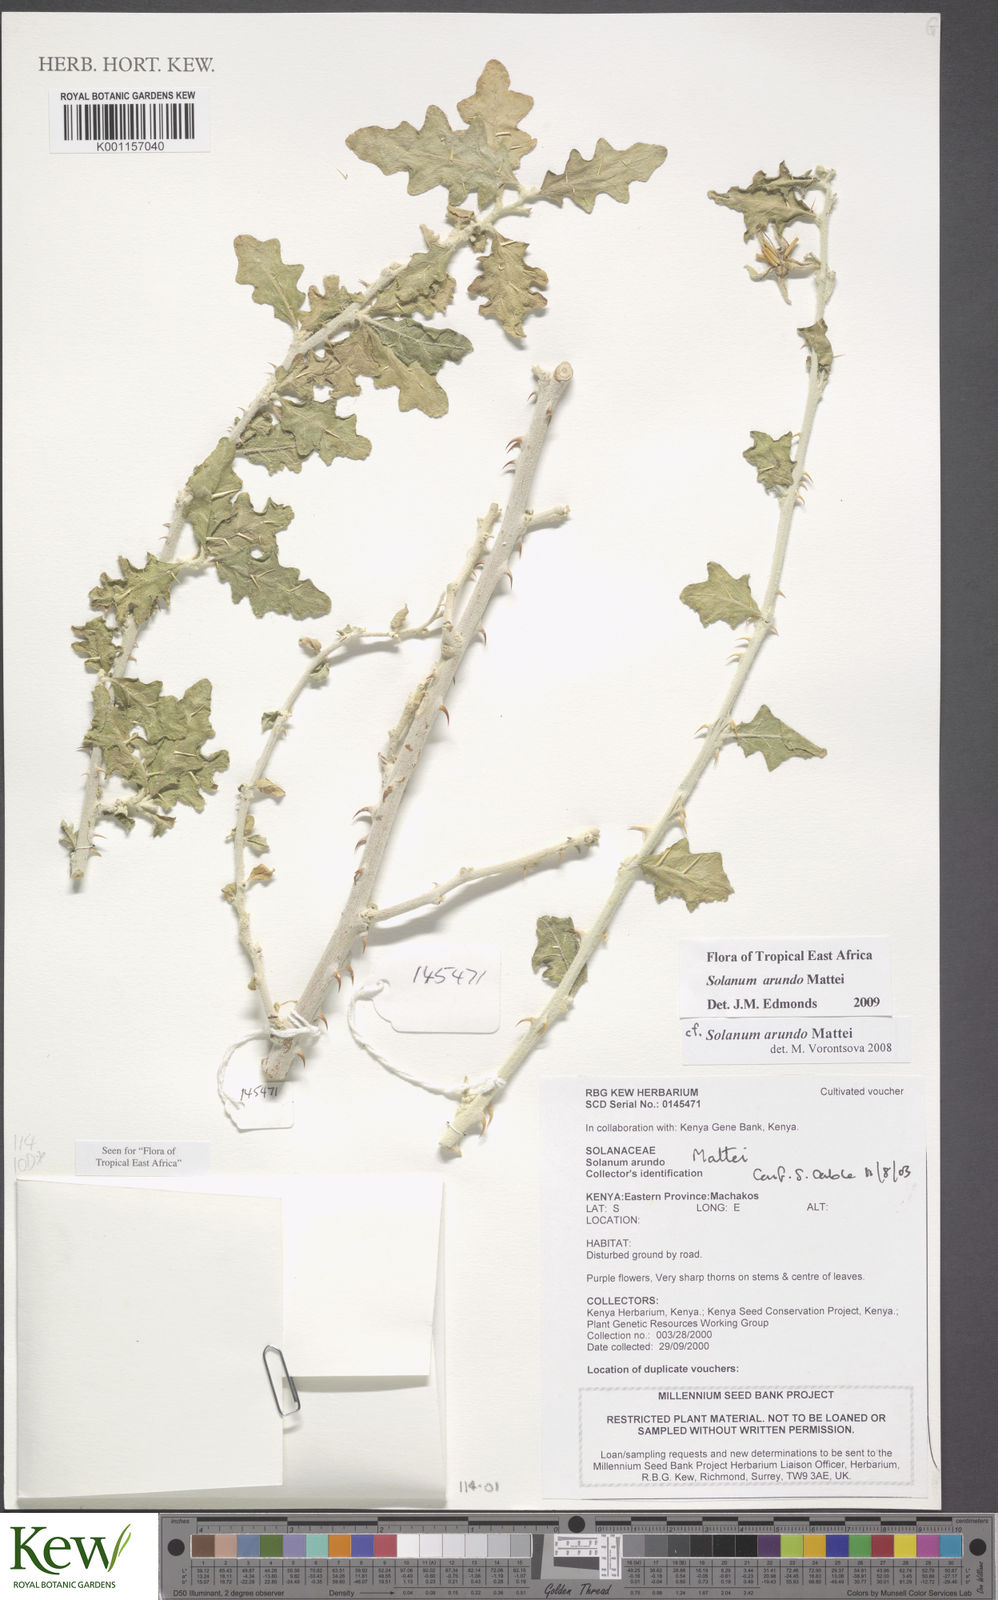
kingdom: Plantae
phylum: Tracheophyta
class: Magnoliopsida
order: Solanales
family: Solanaceae
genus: Solanum
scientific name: Solanum arundo
